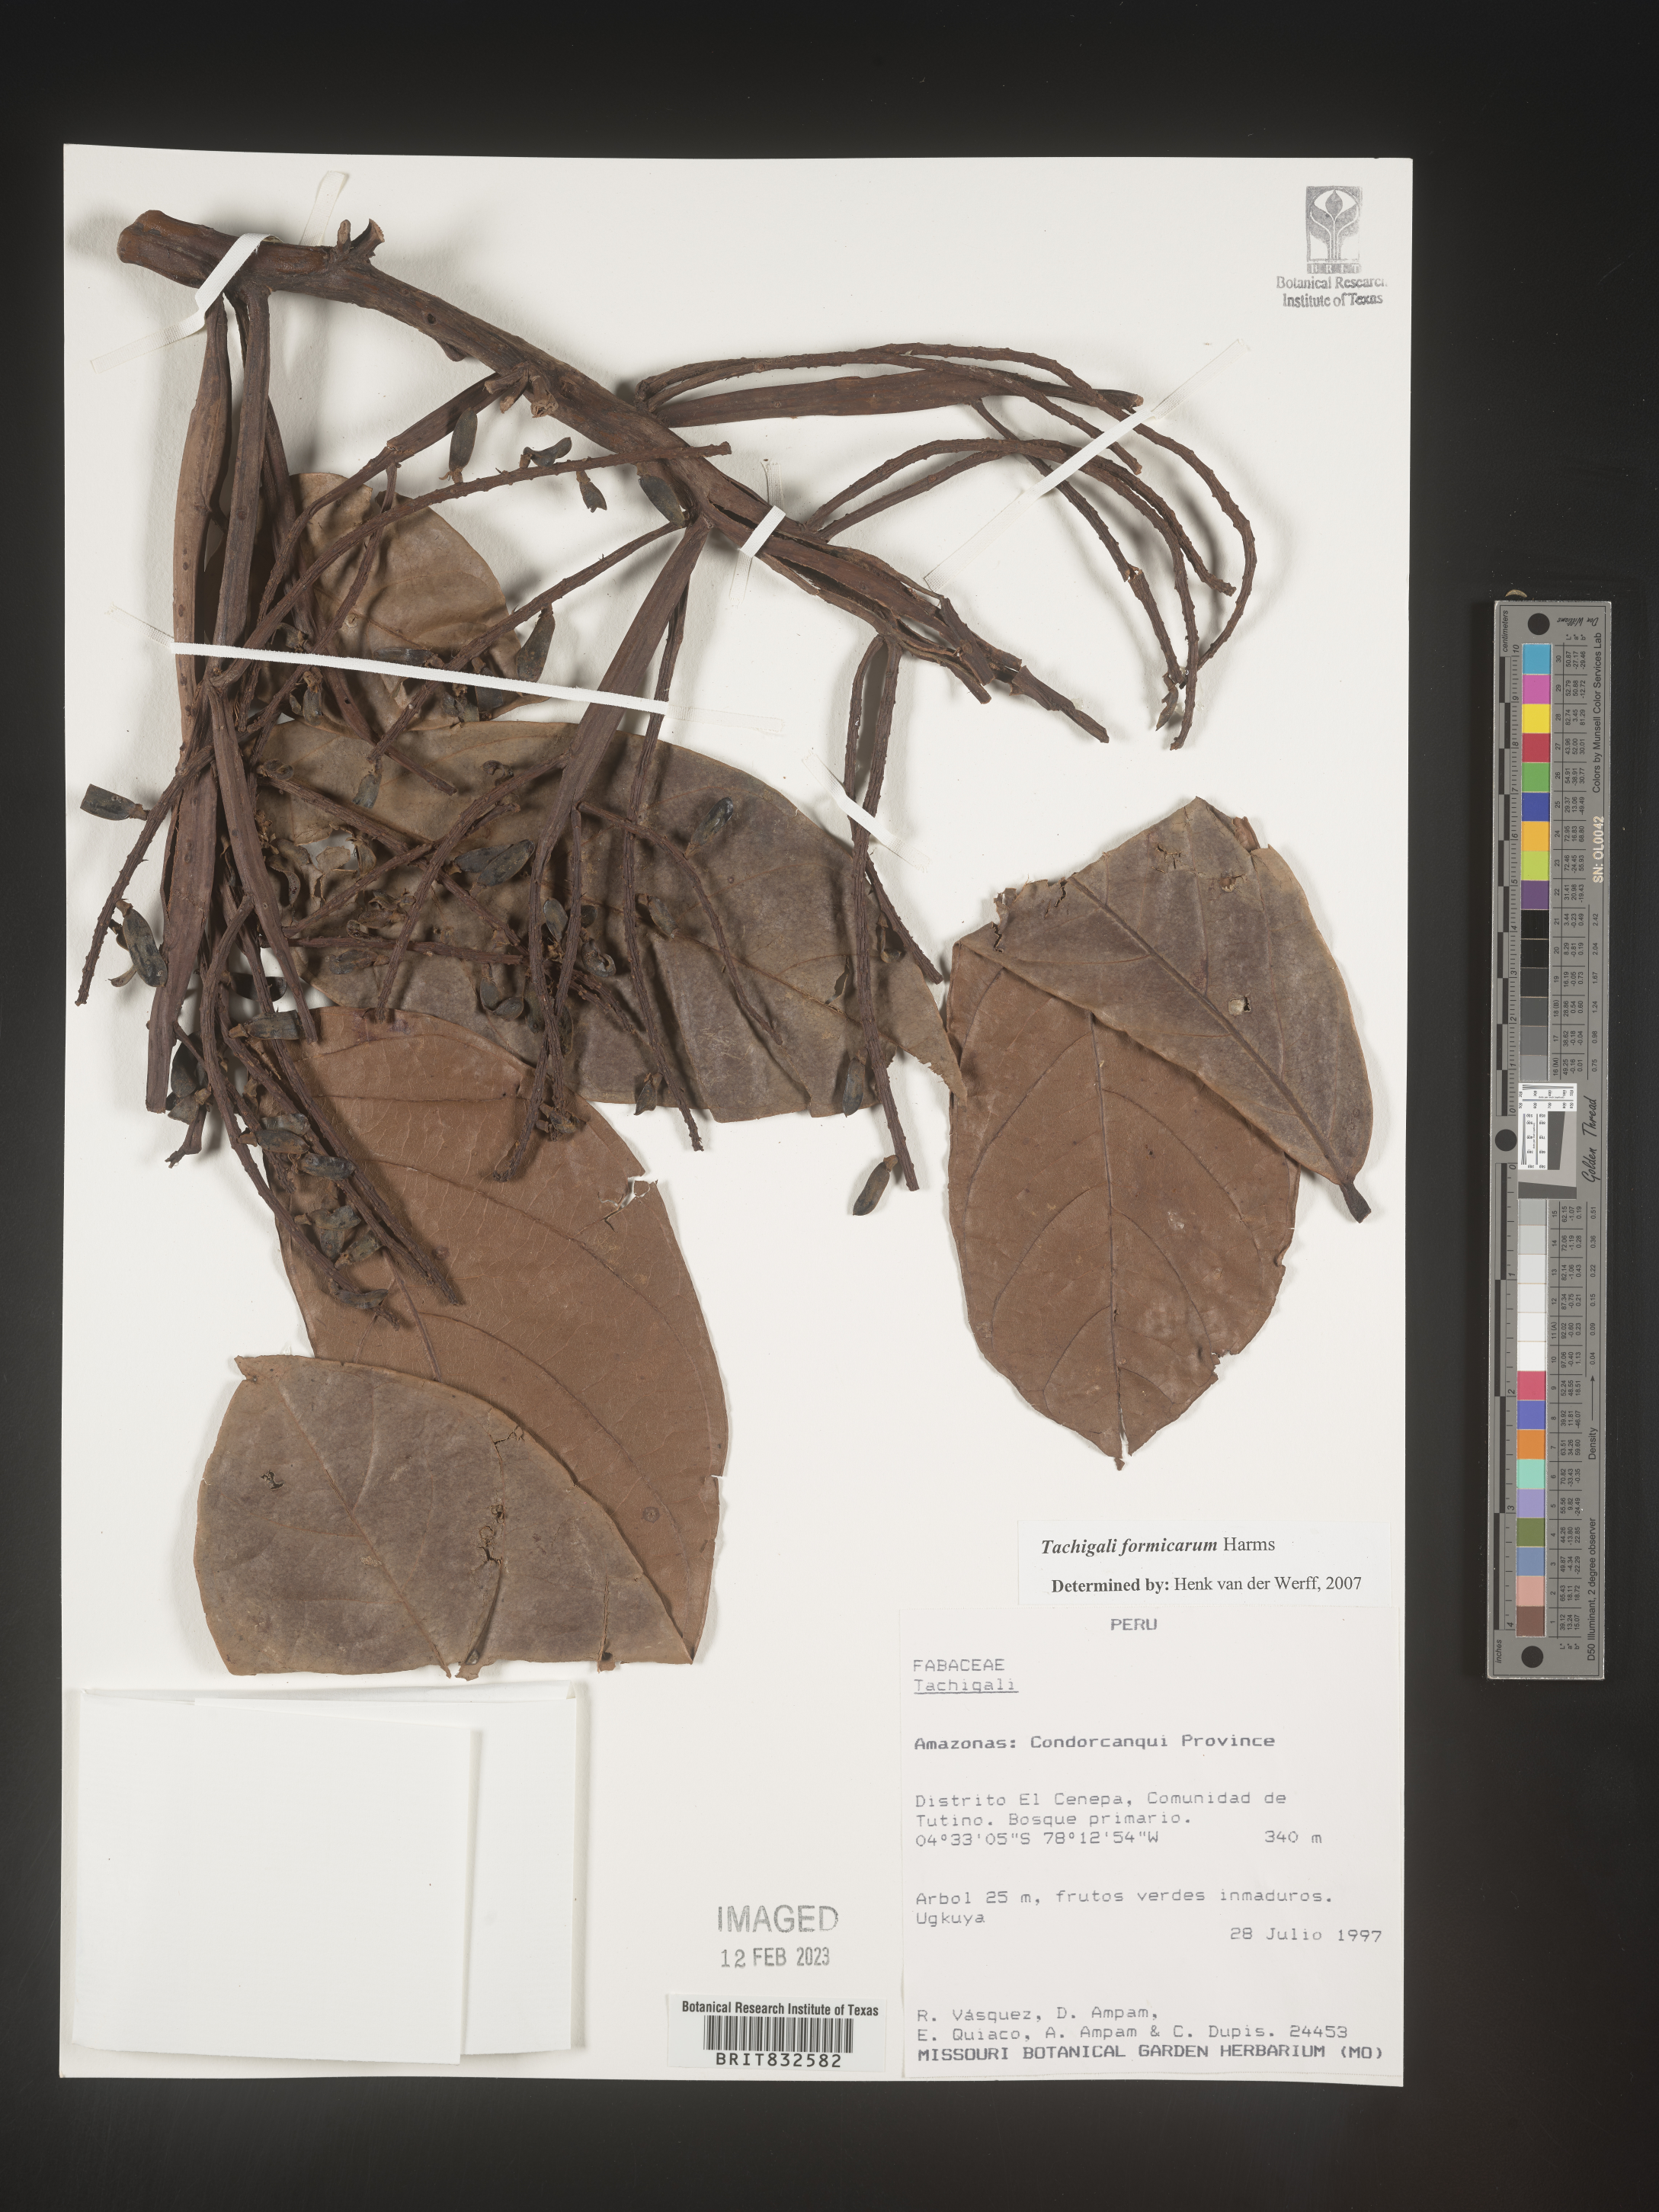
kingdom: Plantae
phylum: Tracheophyta
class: Magnoliopsida
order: Fabales
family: Fabaceae
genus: Tachigali
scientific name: Tachigali
